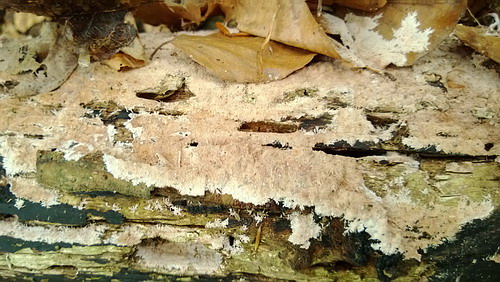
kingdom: Fungi
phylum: Basidiomycota
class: Agaricomycetes
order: Polyporales
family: Steccherinaceae
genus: Steccherinum
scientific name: Steccherinum fimbriatum
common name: trådet skønpig
